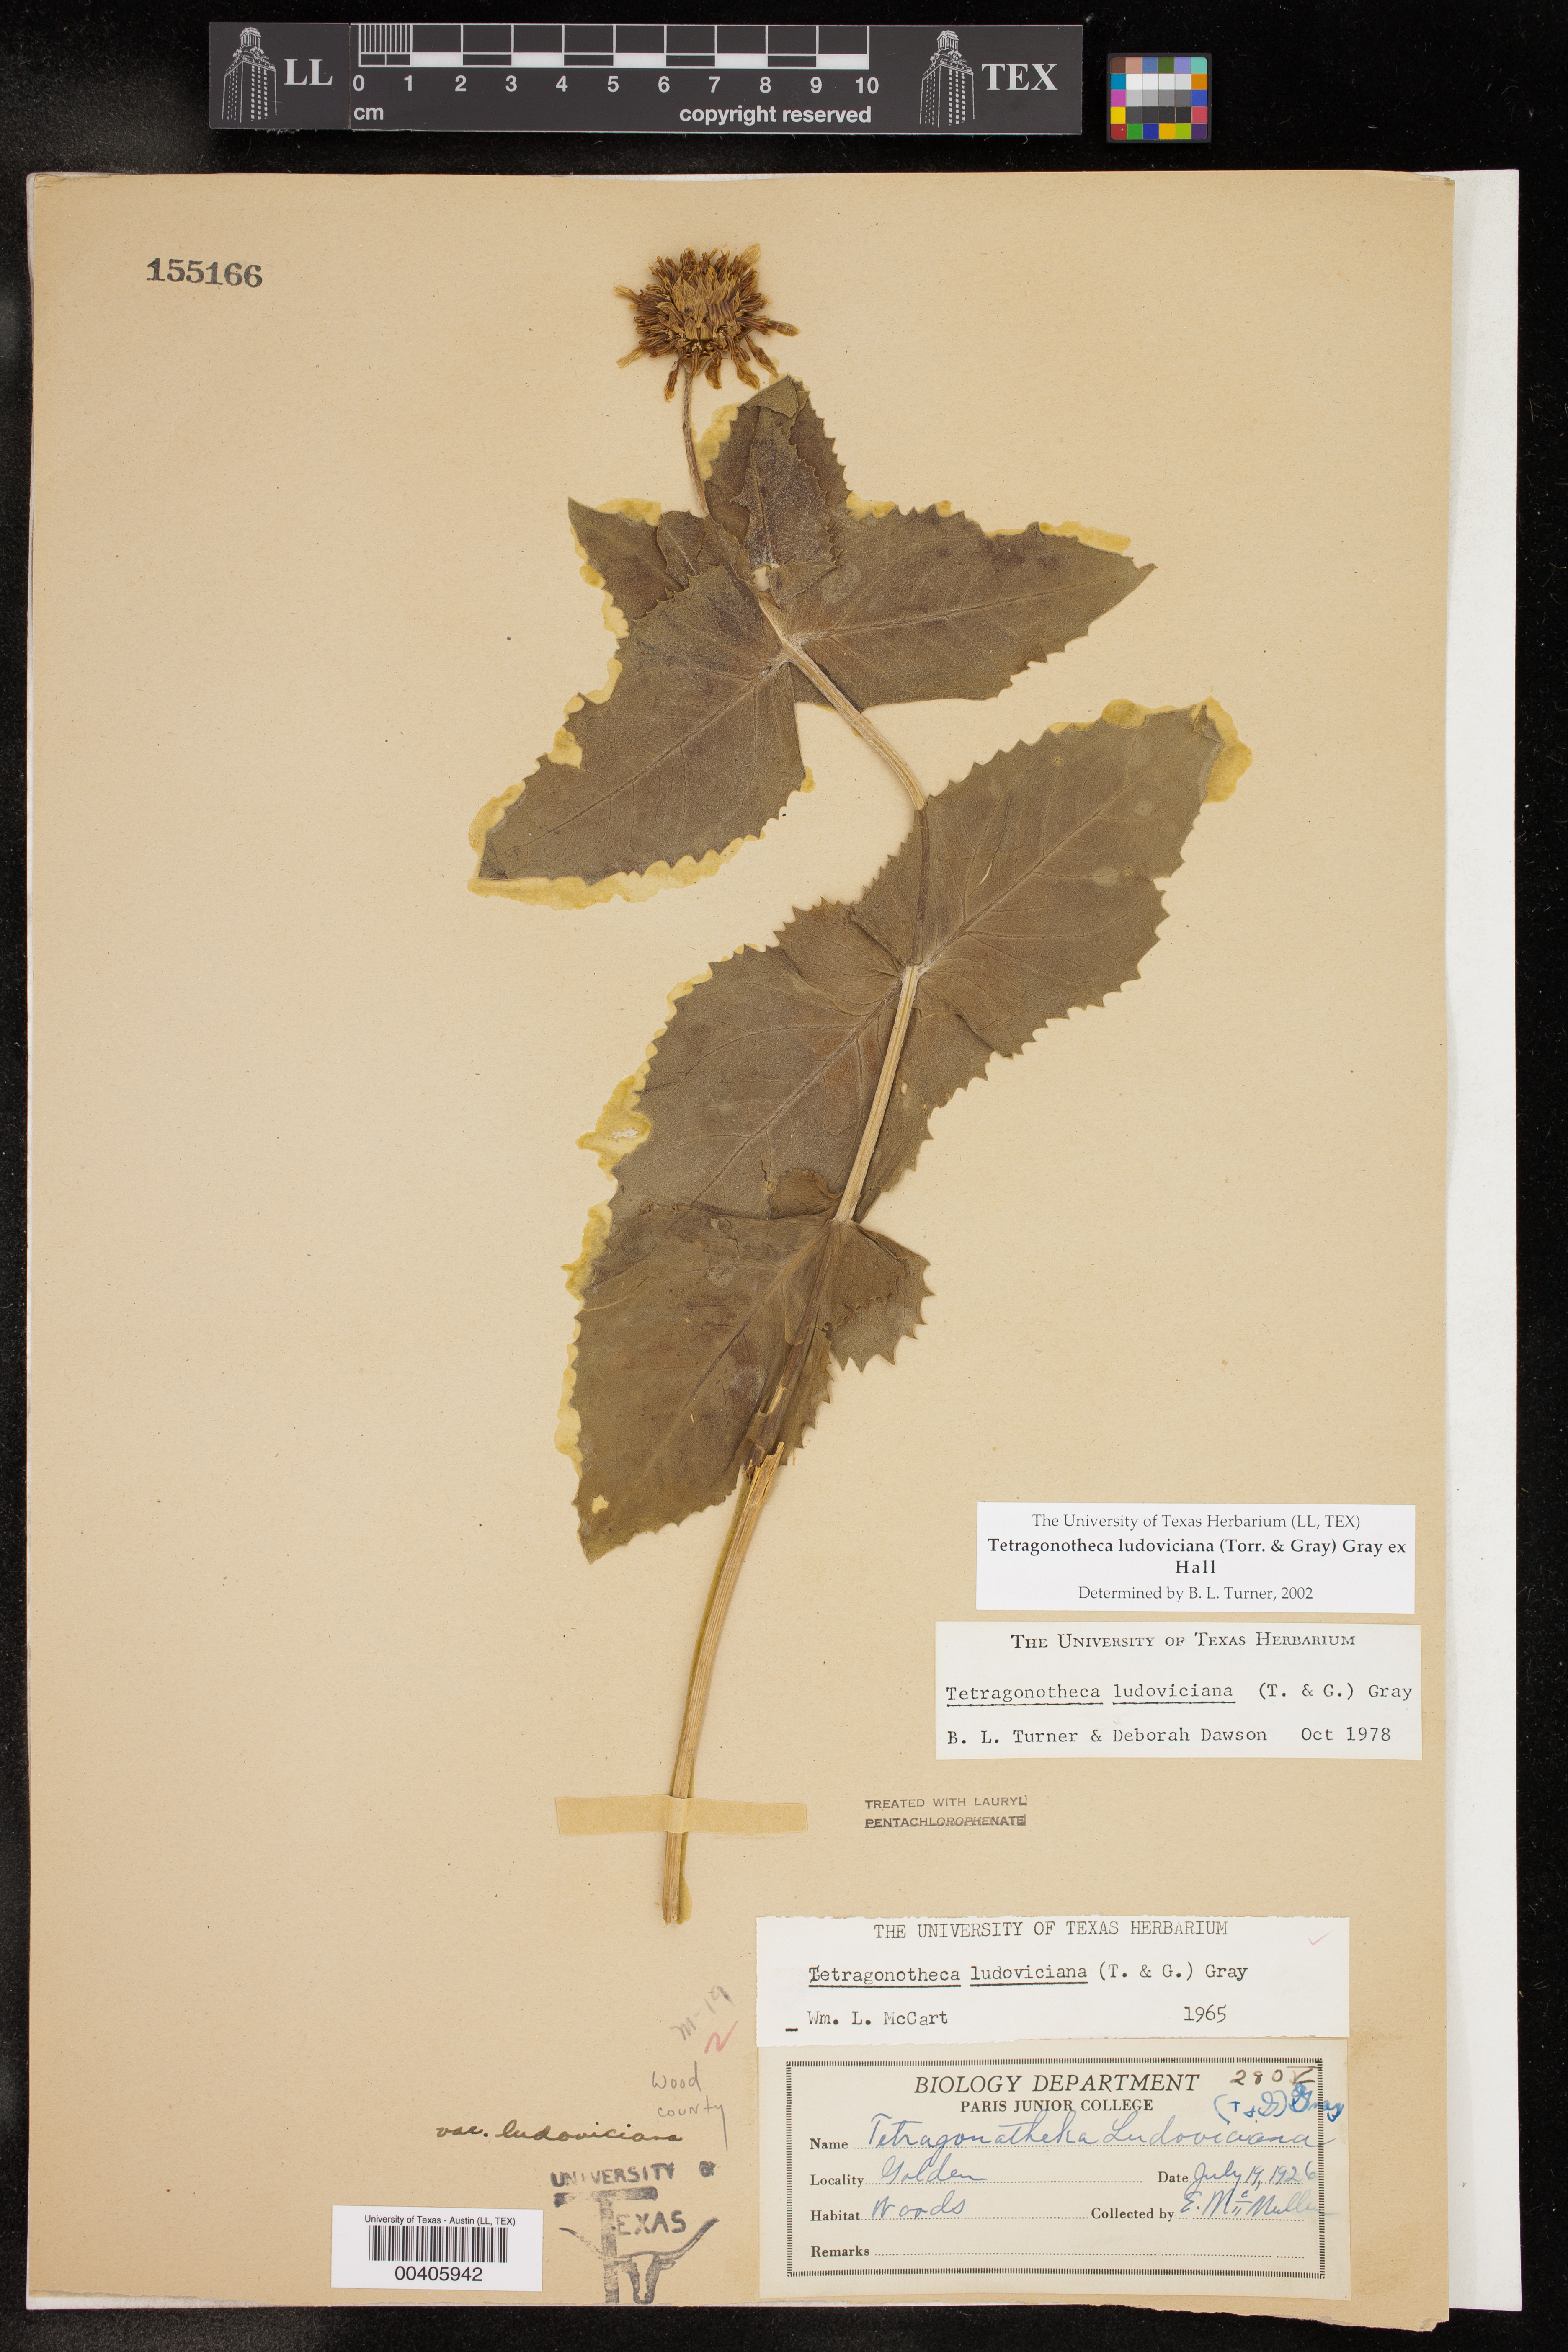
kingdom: Plantae
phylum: Tracheophyta
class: Magnoliopsida
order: Asterales
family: Asteraceae
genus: Tetragonotheca
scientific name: Tetragonotheca ludoviciana
